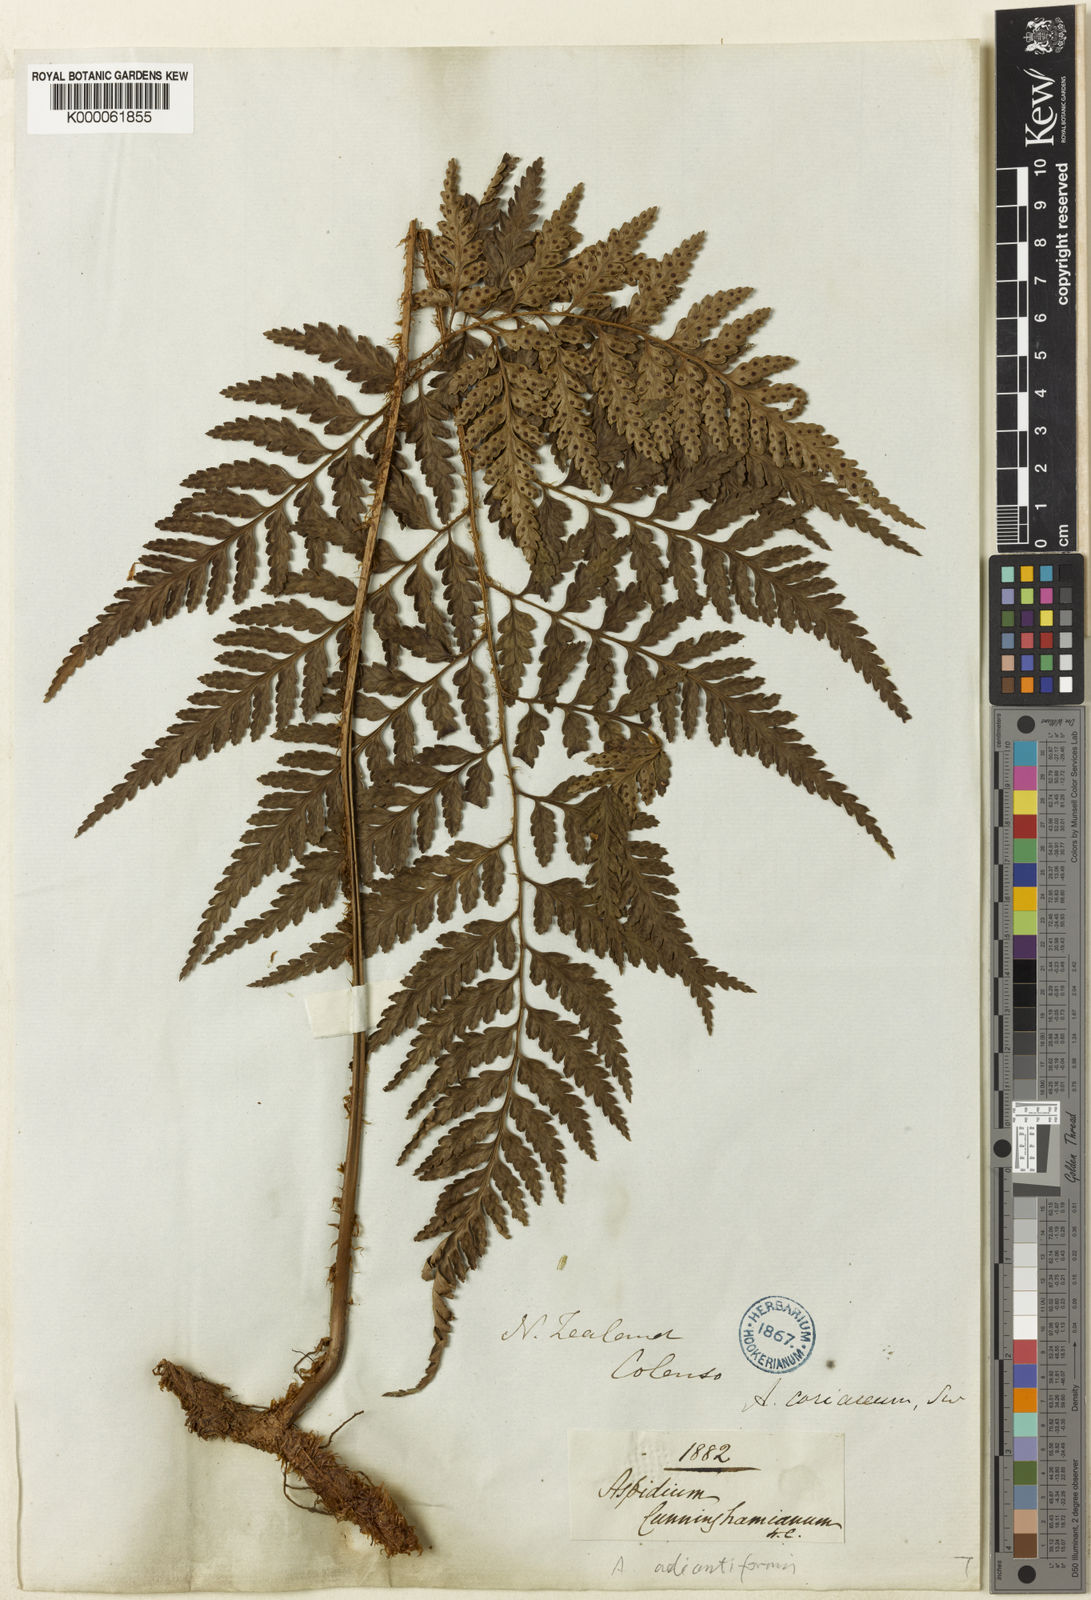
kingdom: Plantae
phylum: Tracheophyta
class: Polypodiopsida
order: Polypodiales
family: Dryopteridaceae
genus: Rumohra
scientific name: Rumohra adiantiformis
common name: Leather fern
